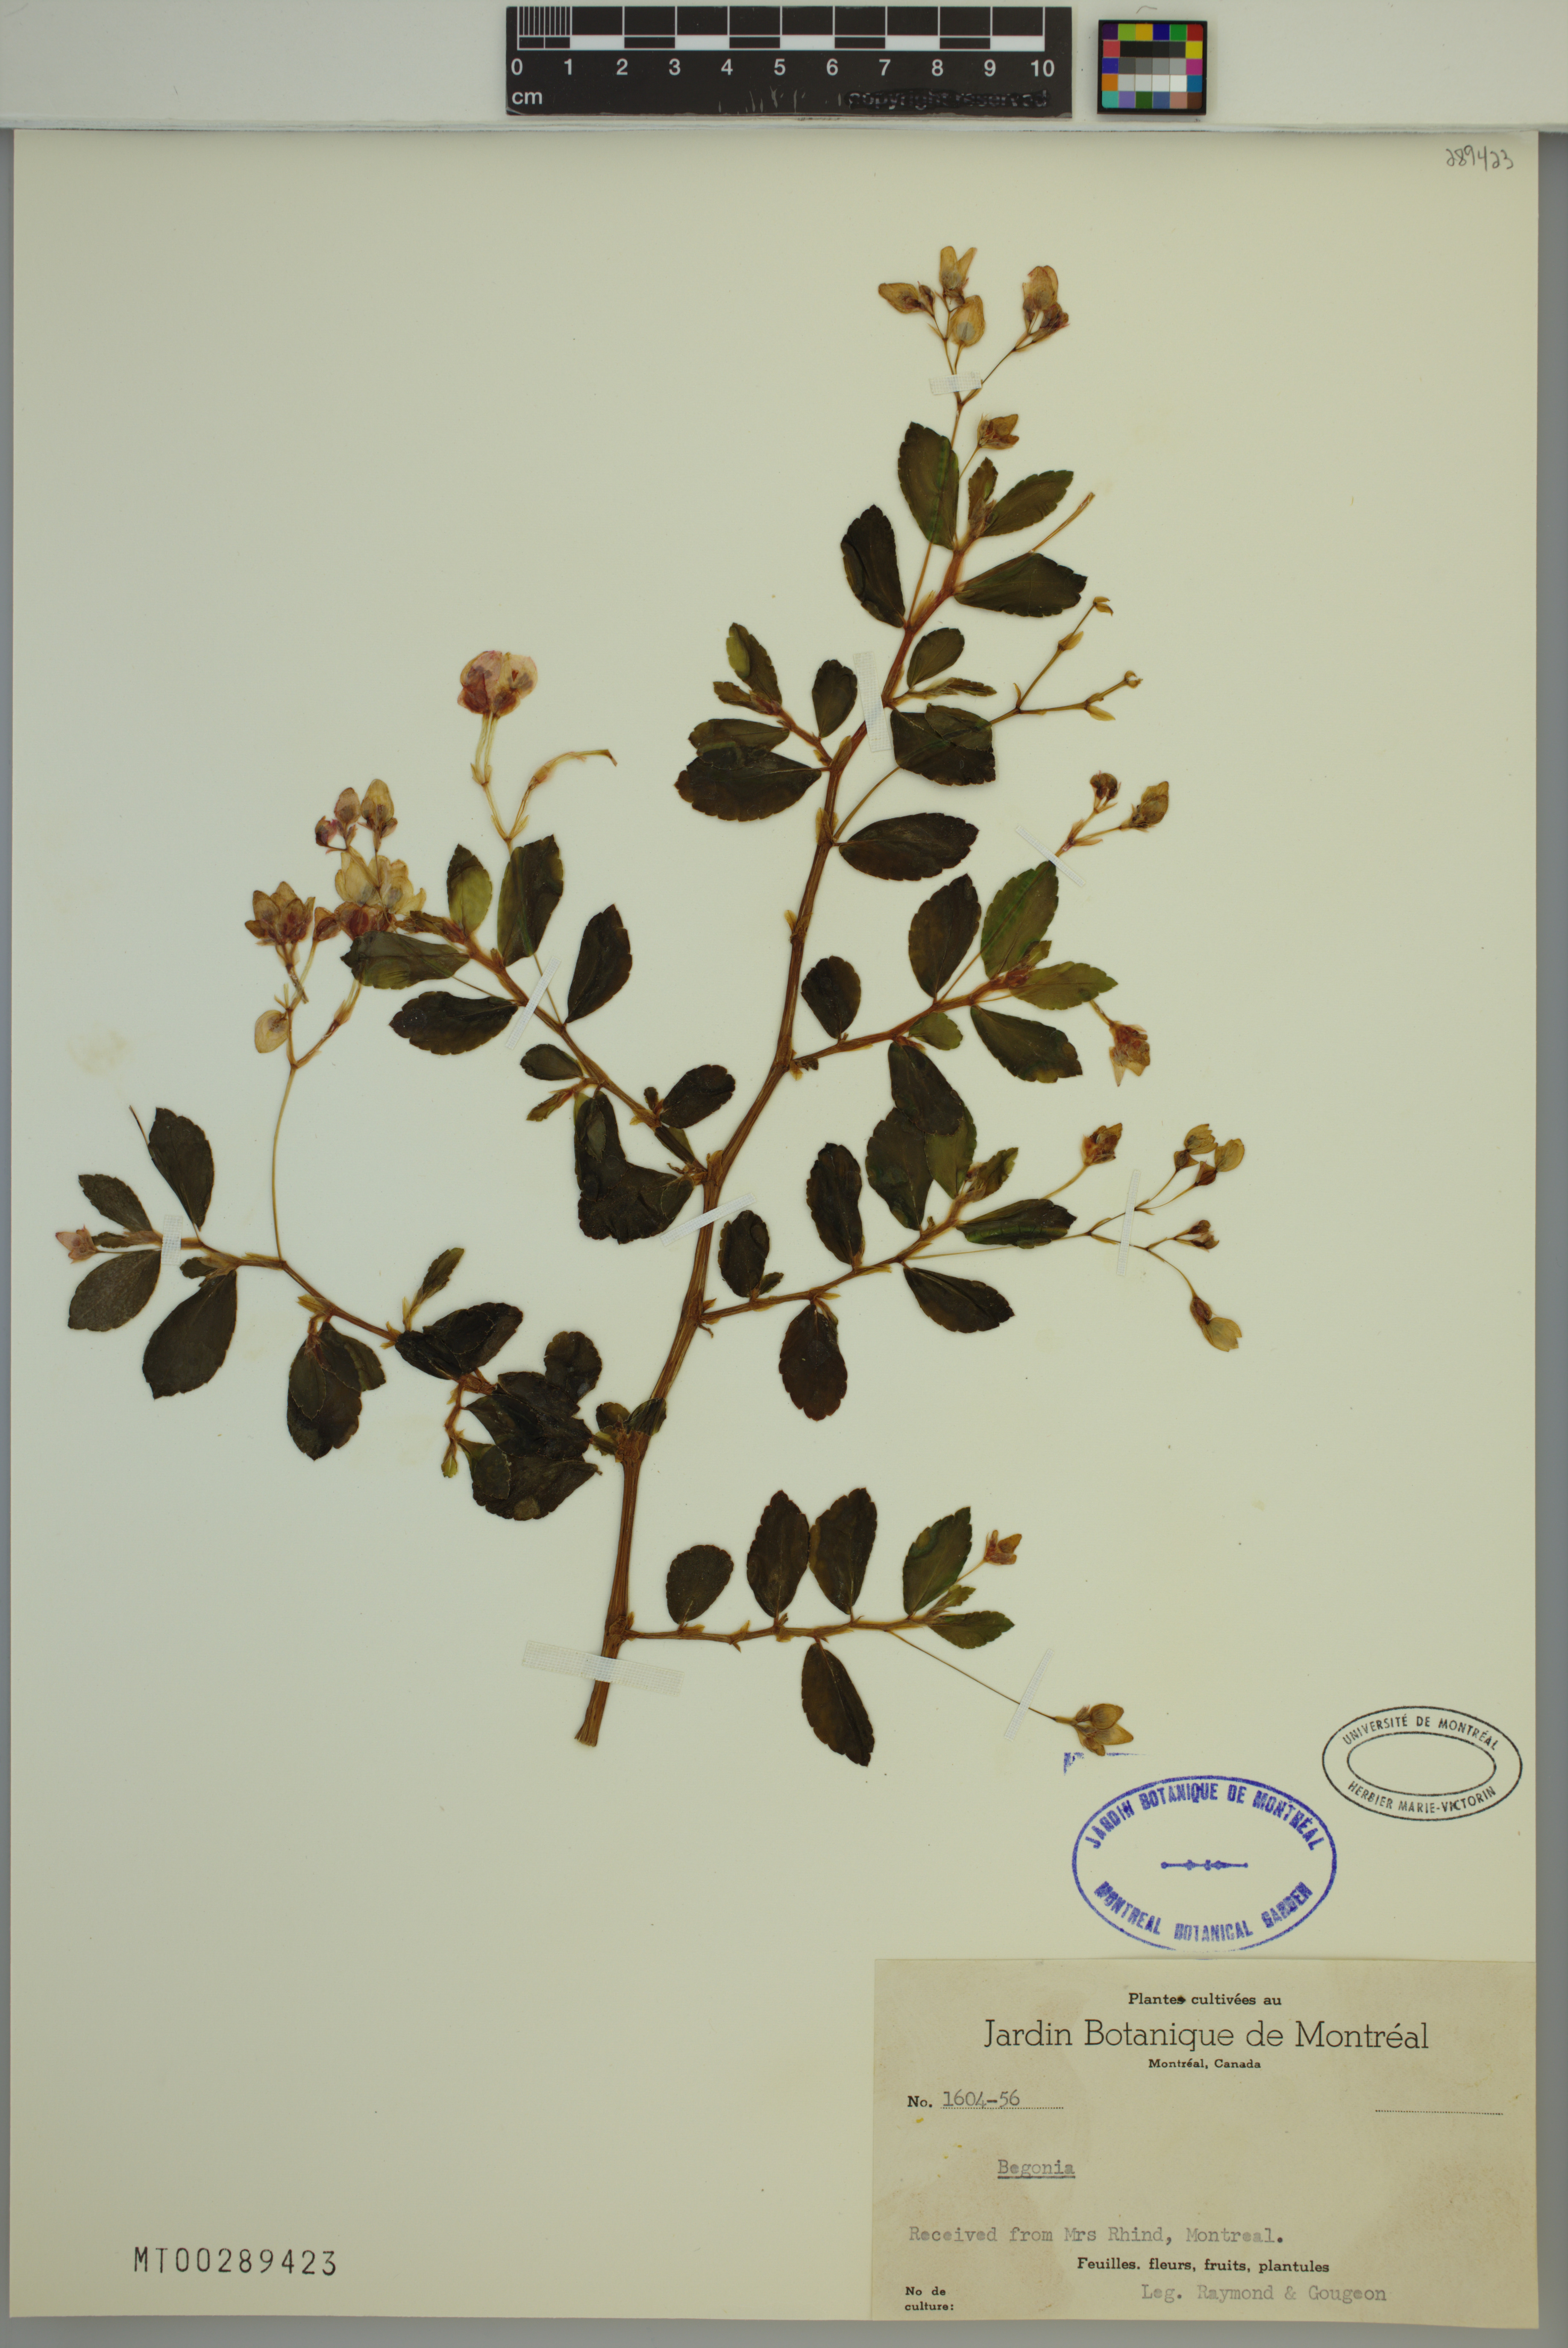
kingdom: Plantae
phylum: Tracheophyta
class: Magnoliopsida
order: Cucurbitales
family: Begoniaceae
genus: Begonia
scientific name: Begonia
